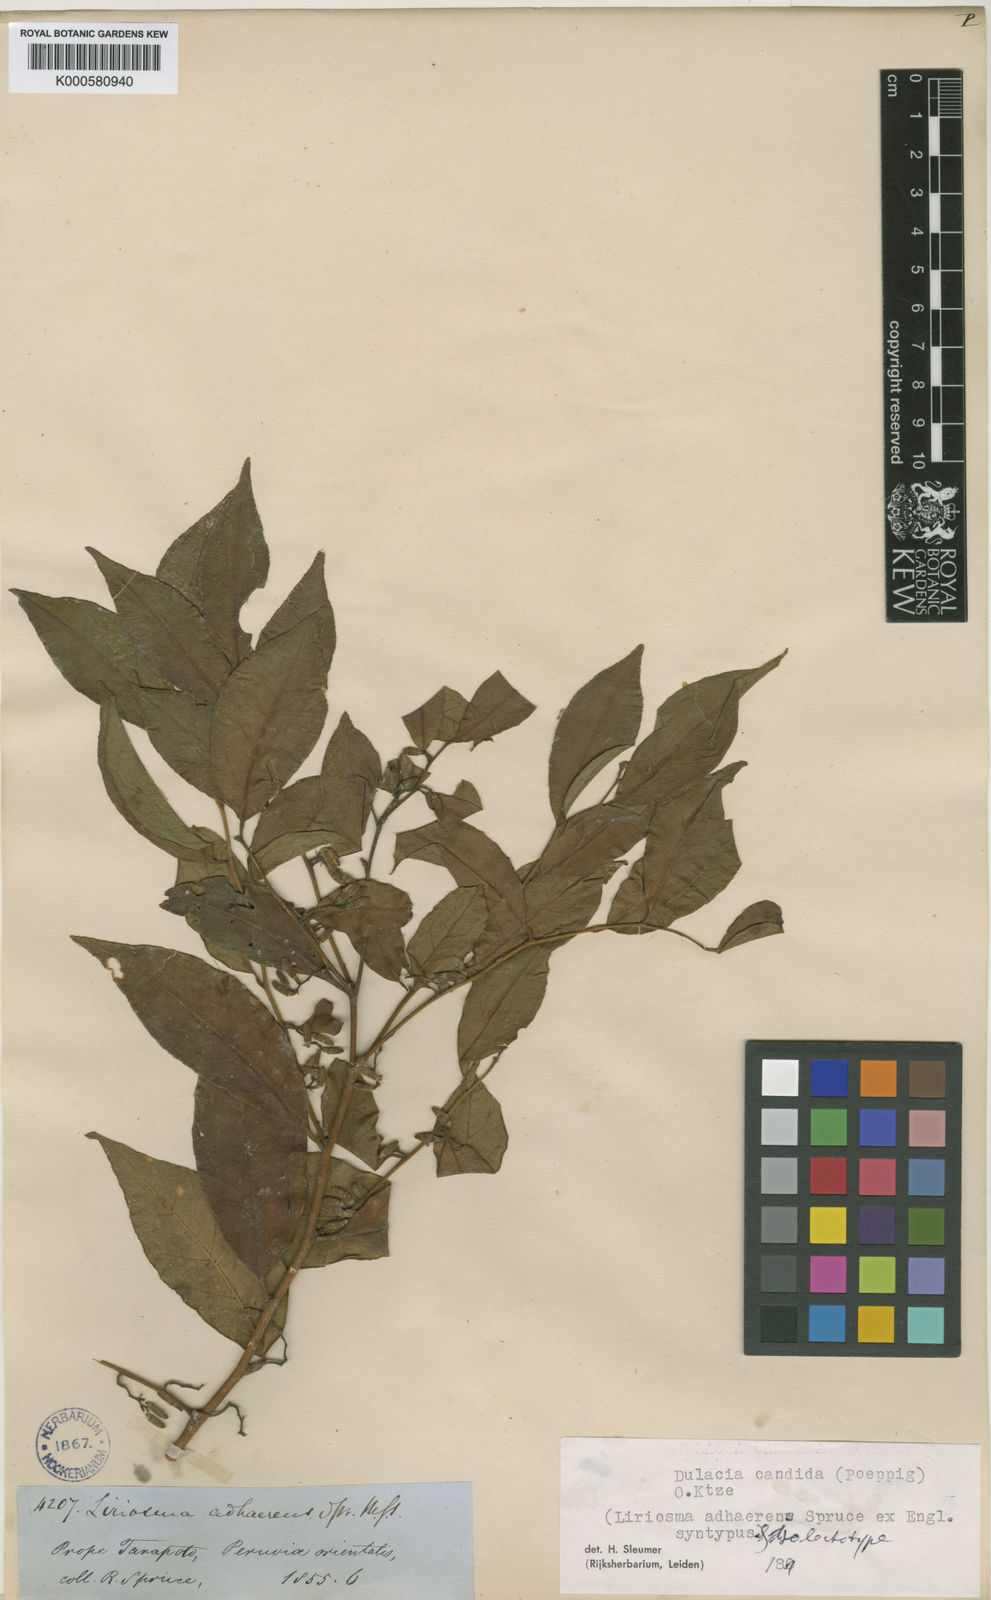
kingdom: Plantae
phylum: Tracheophyta
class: Magnoliopsida
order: Santalales
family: Olacaceae
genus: Dulacia
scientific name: Dulacia candida
